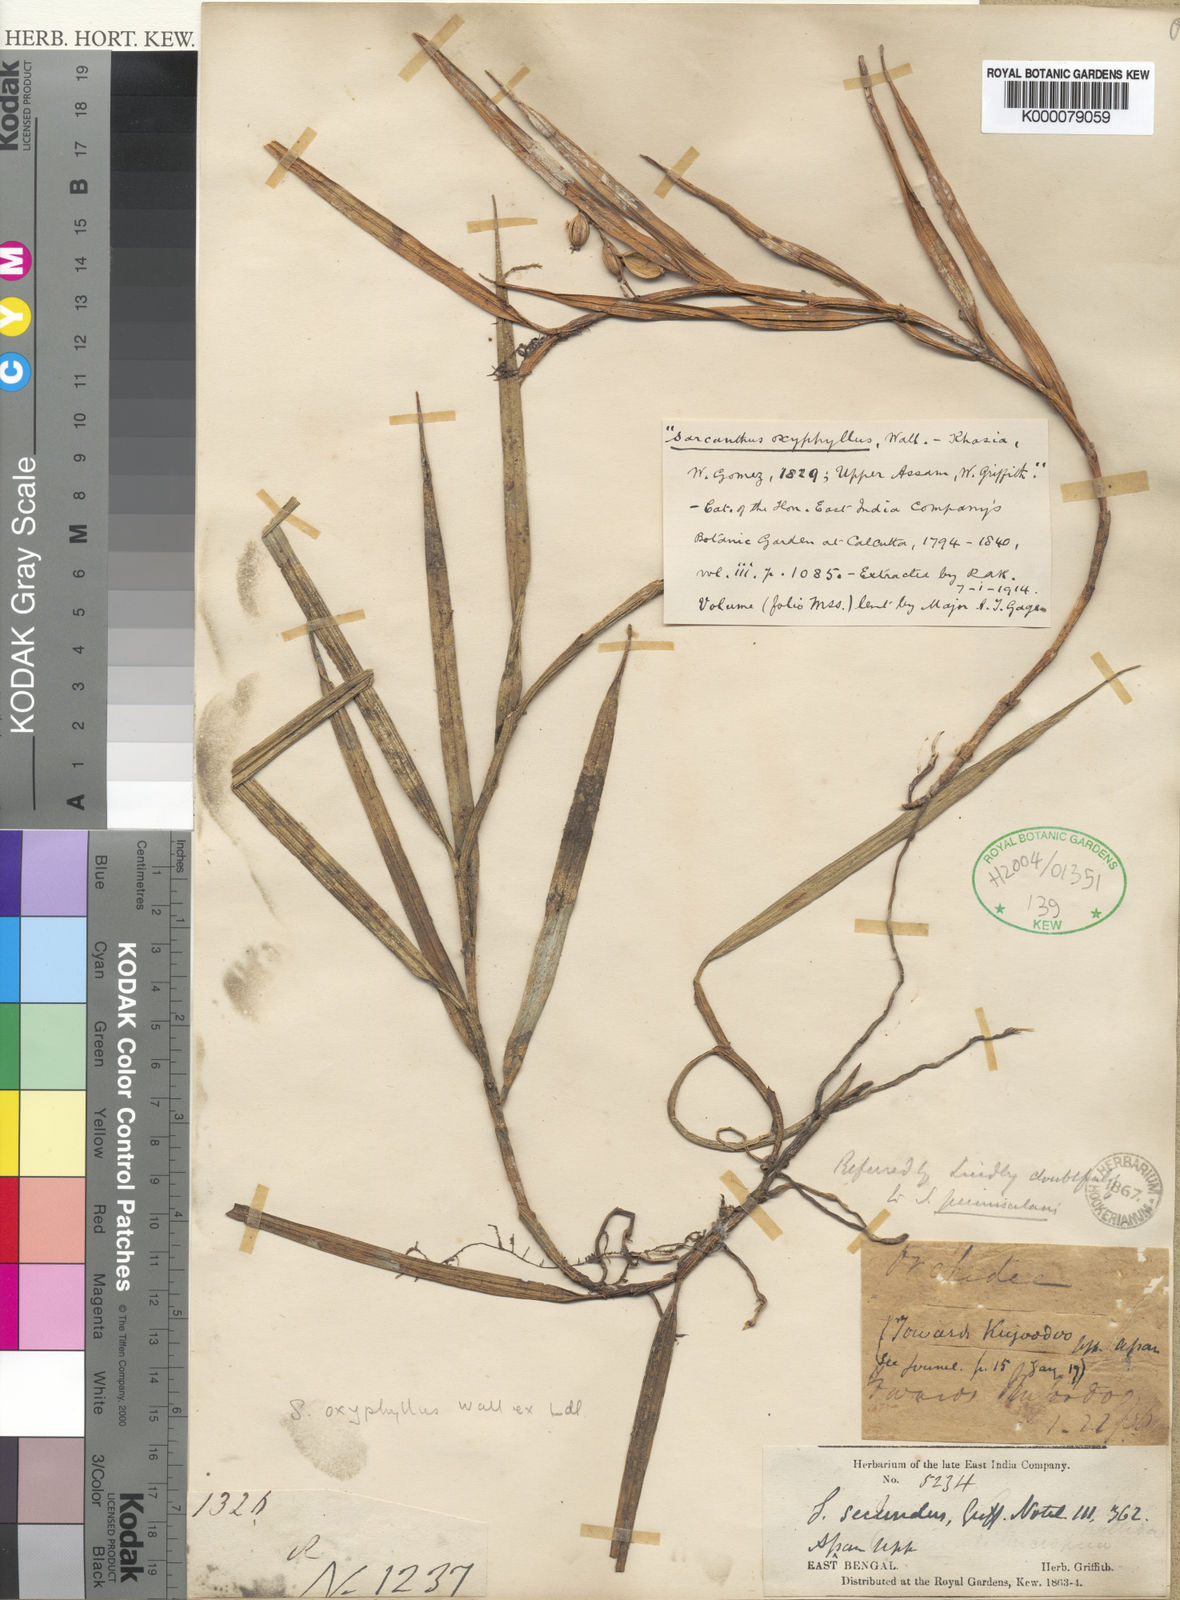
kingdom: Plantae
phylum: Tracheophyta
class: Liliopsida
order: Asparagales
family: Orchidaceae
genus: Cleisostoma
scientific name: Cleisostoma subulatum
